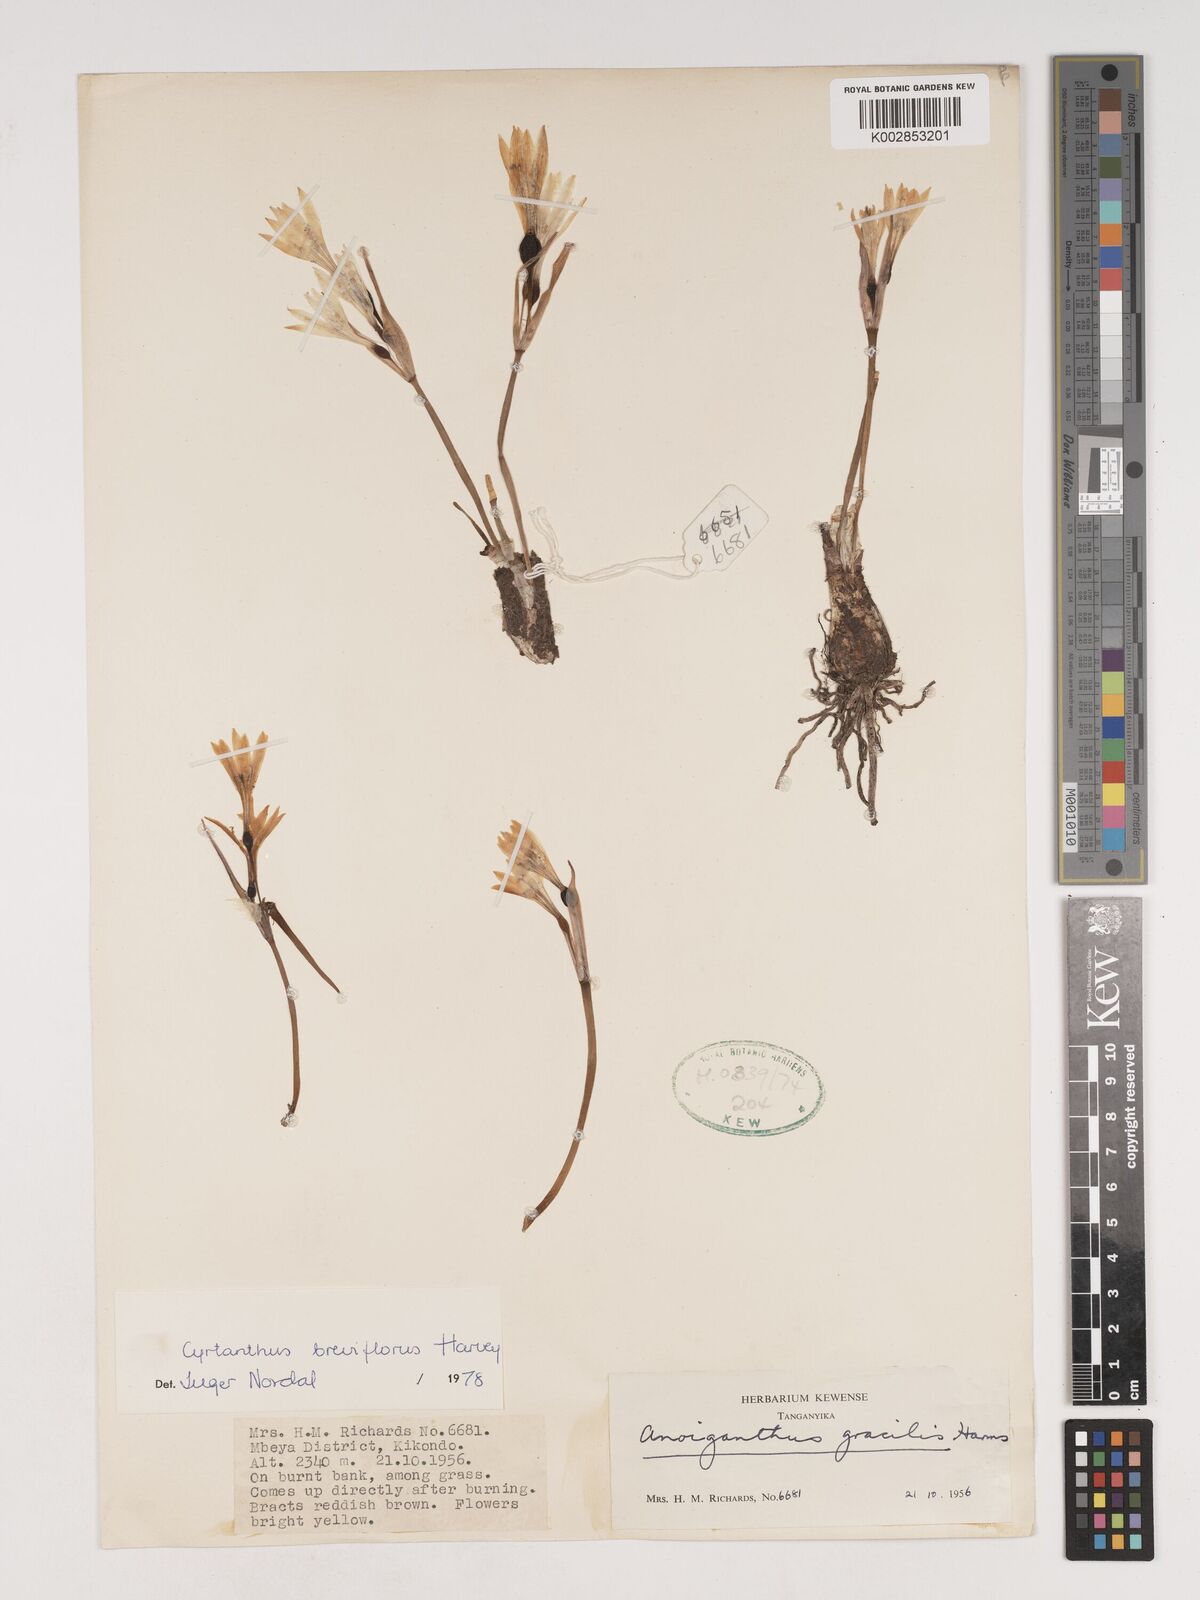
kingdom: Plantae
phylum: Tracheophyta
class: Liliopsida
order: Asparagales
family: Amaryllidaceae
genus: Cyrtanthus
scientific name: Cyrtanthus breviflorus
